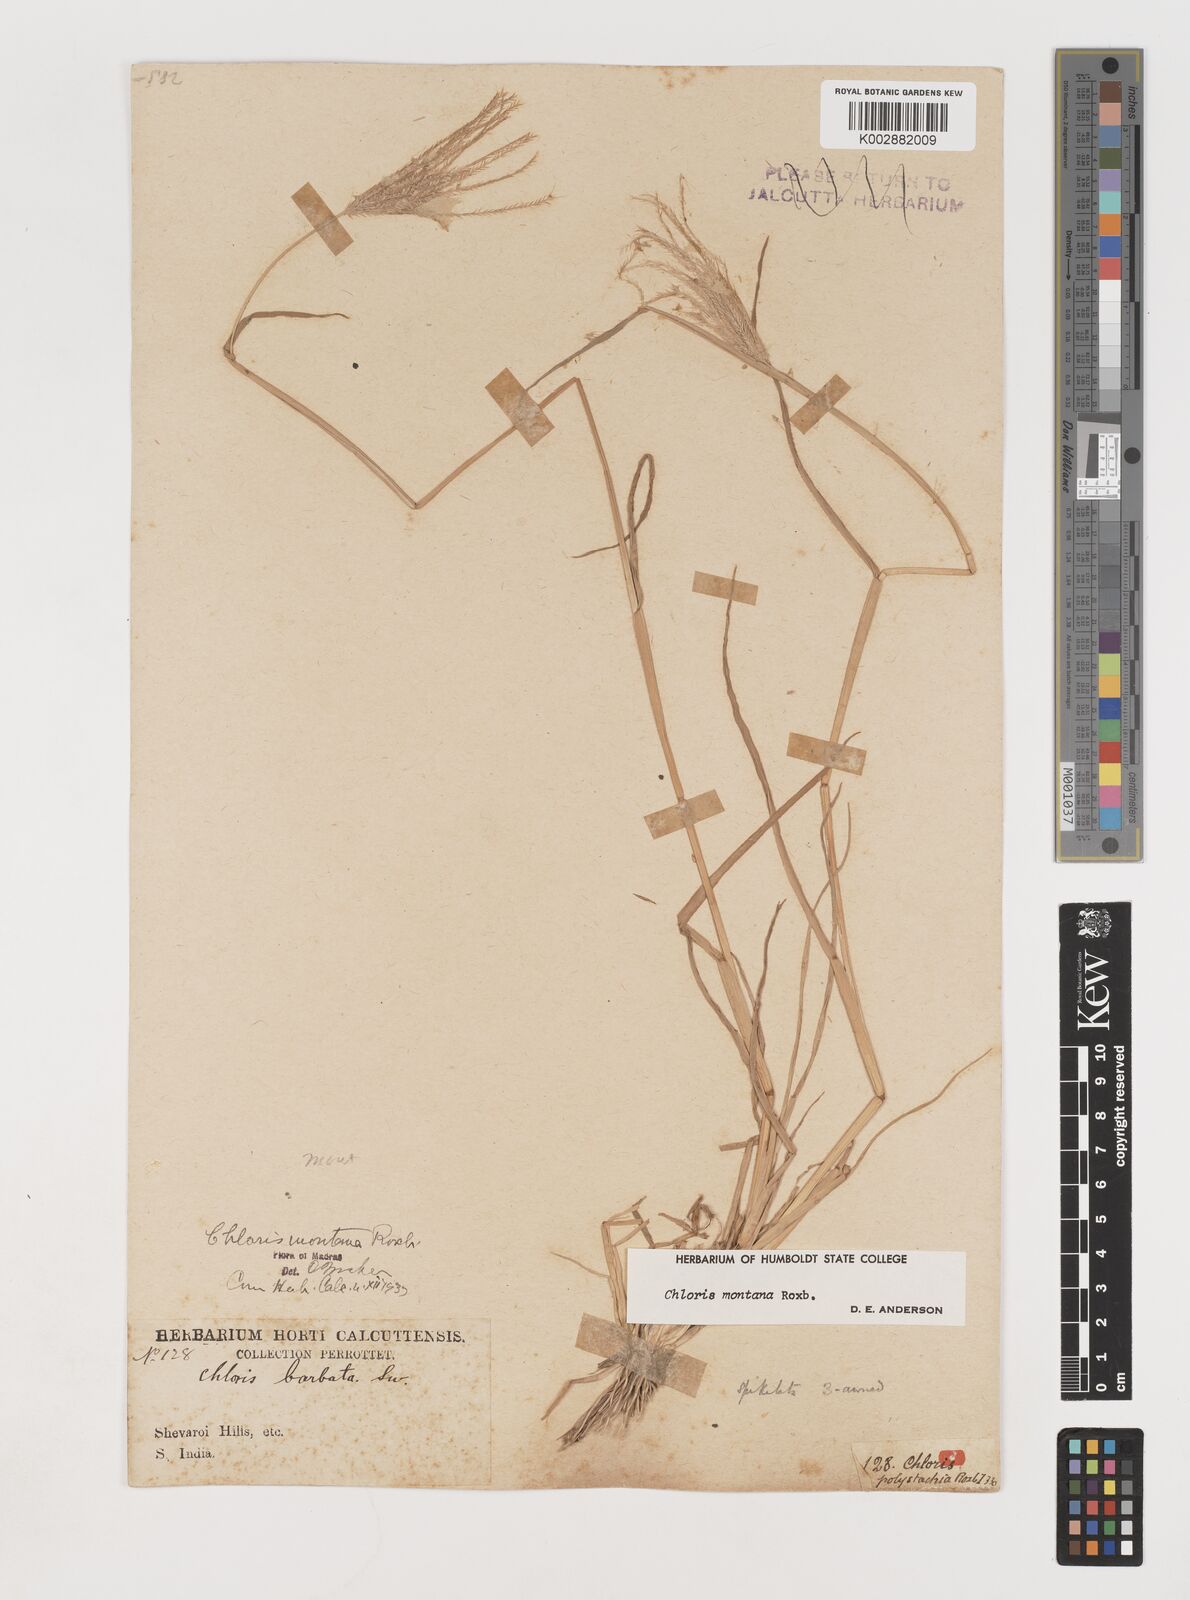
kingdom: Plantae
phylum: Tracheophyta
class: Liliopsida
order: Poales
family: Poaceae
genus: Chloris
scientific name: Chloris montana
